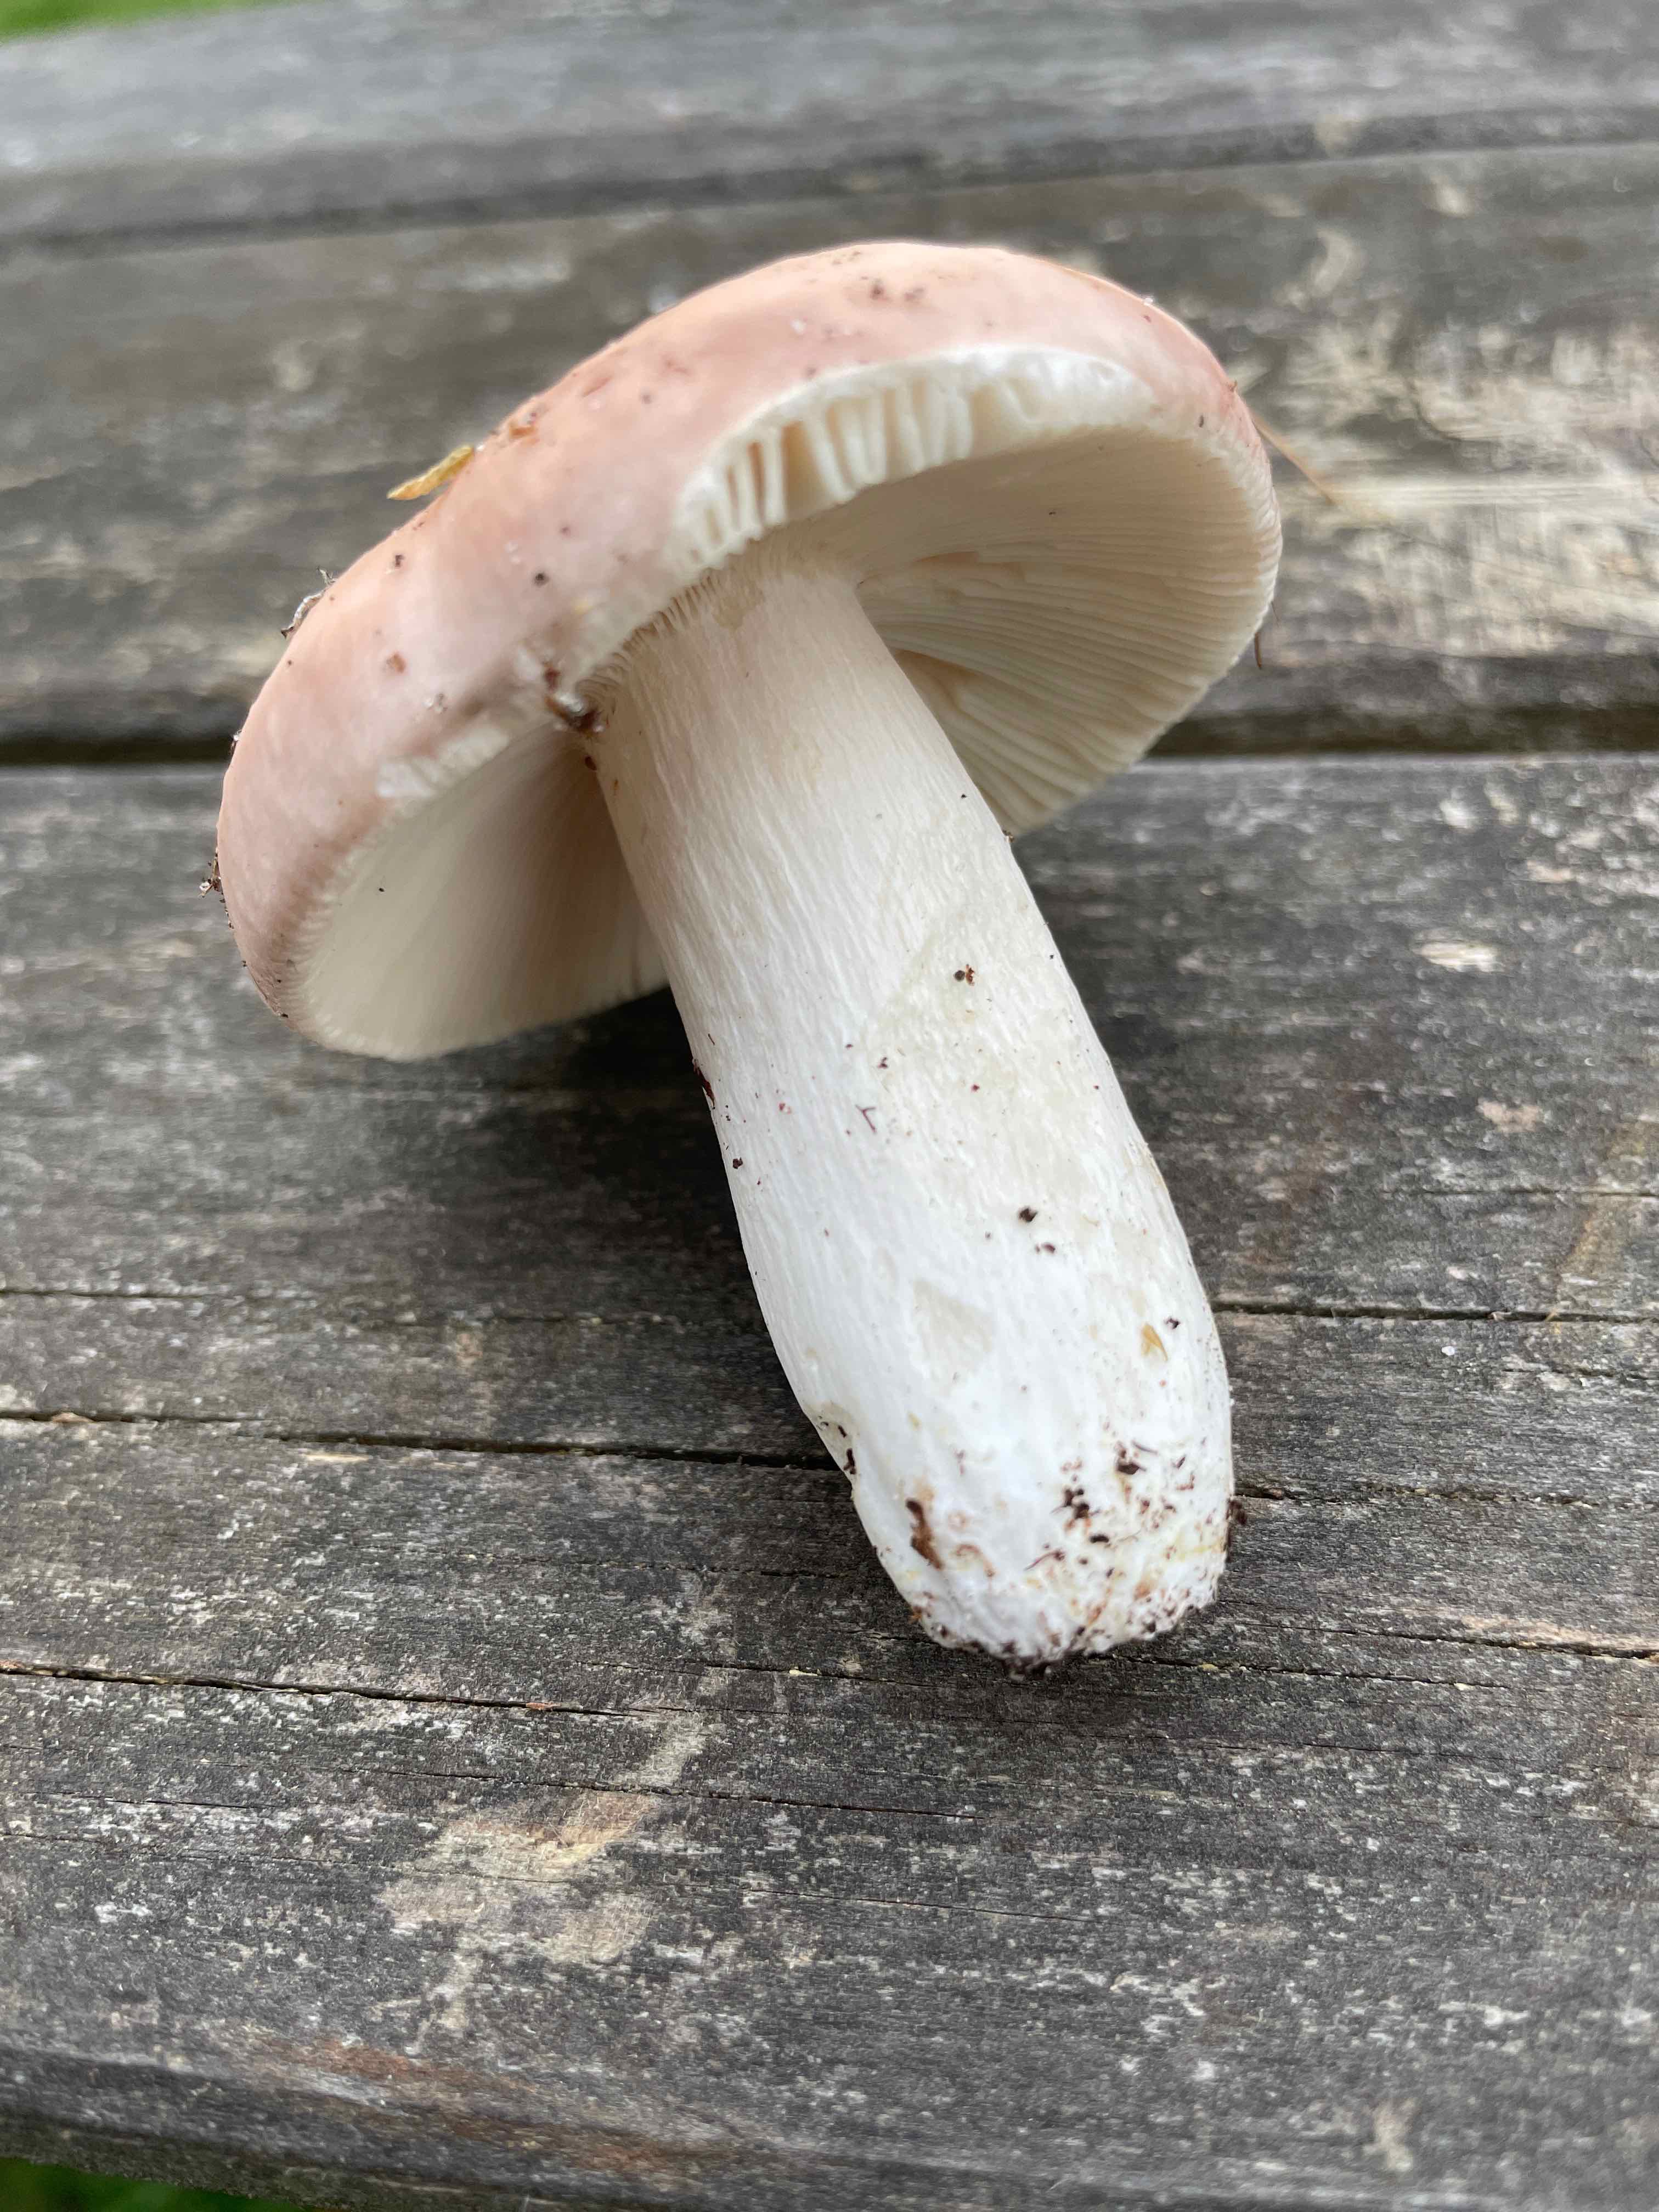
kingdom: Fungi
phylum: Basidiomycota
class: Agaricomycetes
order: Russulales
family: Russulaceae
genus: Russula
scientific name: Russula vesca
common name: spiselig skørhat
